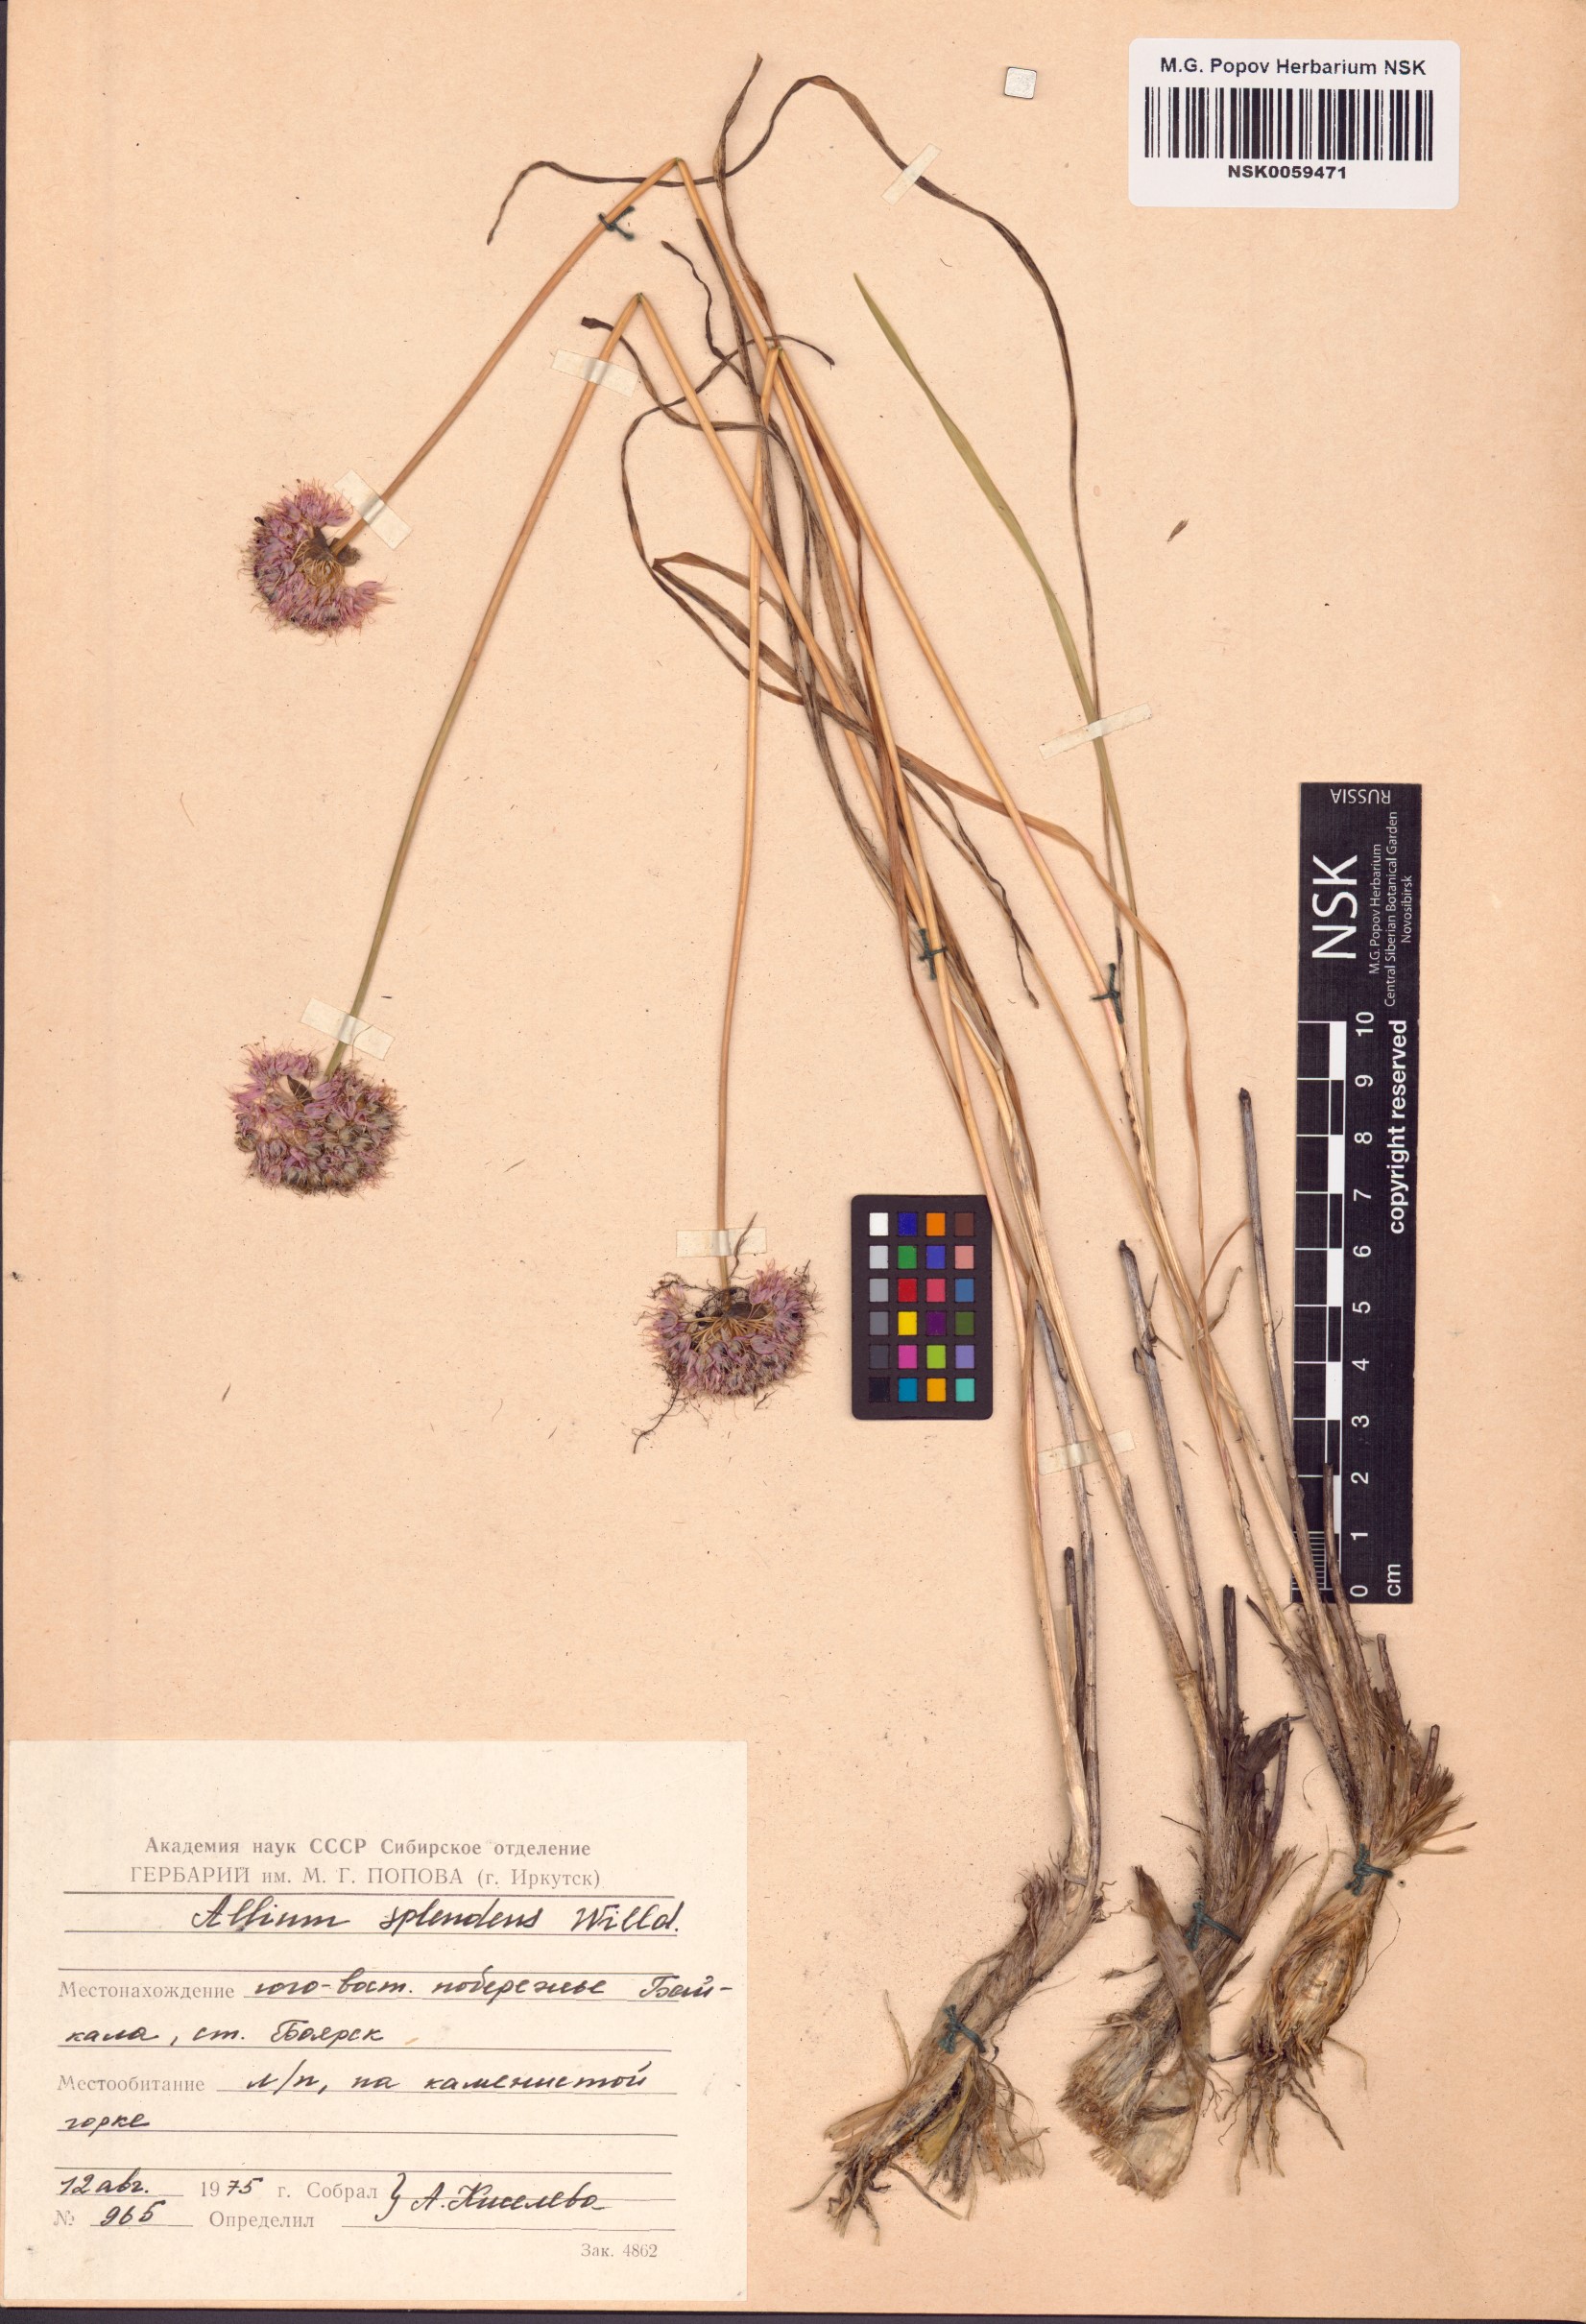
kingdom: Plantae
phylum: Tracheophyta
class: Liliopsida
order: Asparagales
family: Amaryllidaceae
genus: Allium
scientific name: Allium splendens
